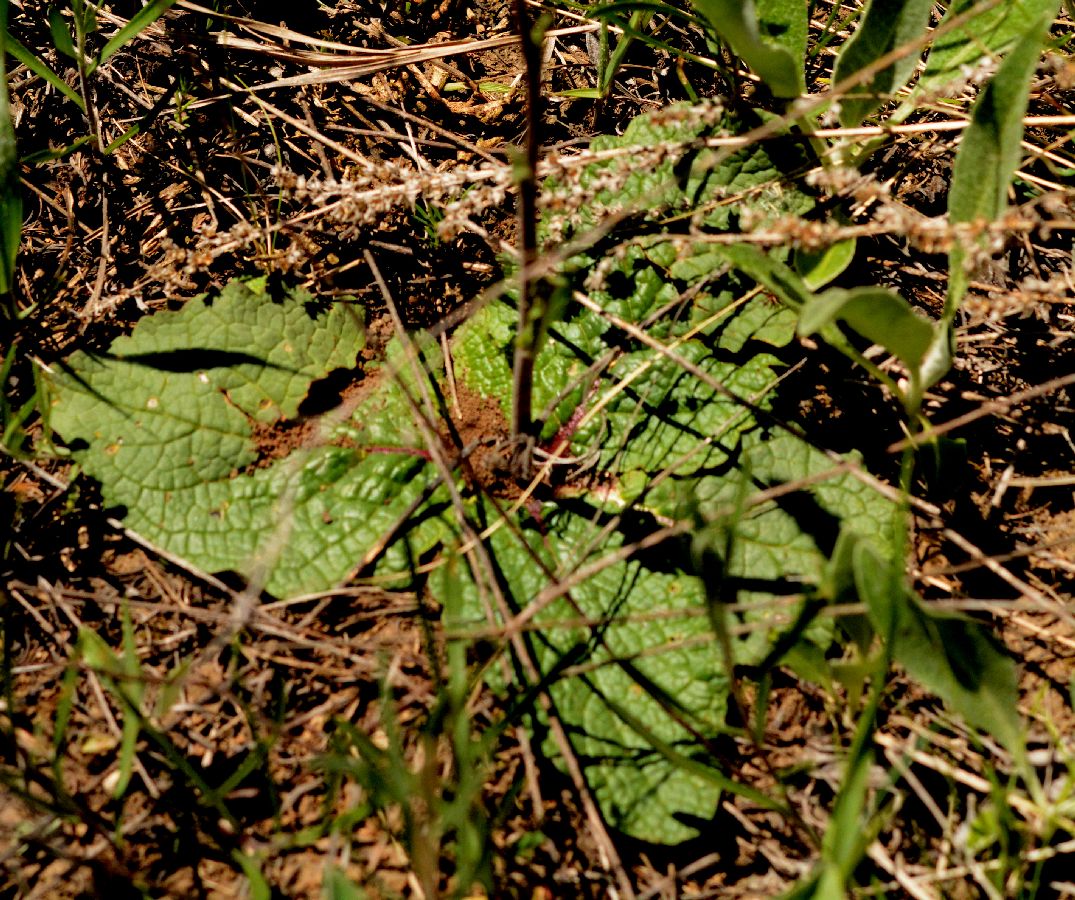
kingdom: Plantae
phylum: Tracheophyta
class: Magnoliopsida
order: Lamiales
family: Scrophulariaceae
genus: Verbascum
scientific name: Verbascum phoeniceum
